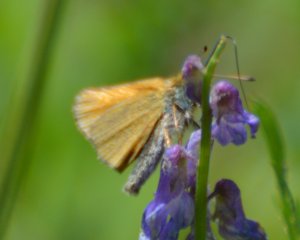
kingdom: Animalia
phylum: Arthropoda
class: Insecta
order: Lepidoptera
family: Hesperiidae
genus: Thymelicus
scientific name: Thymelicus lineola
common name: European Skipper
